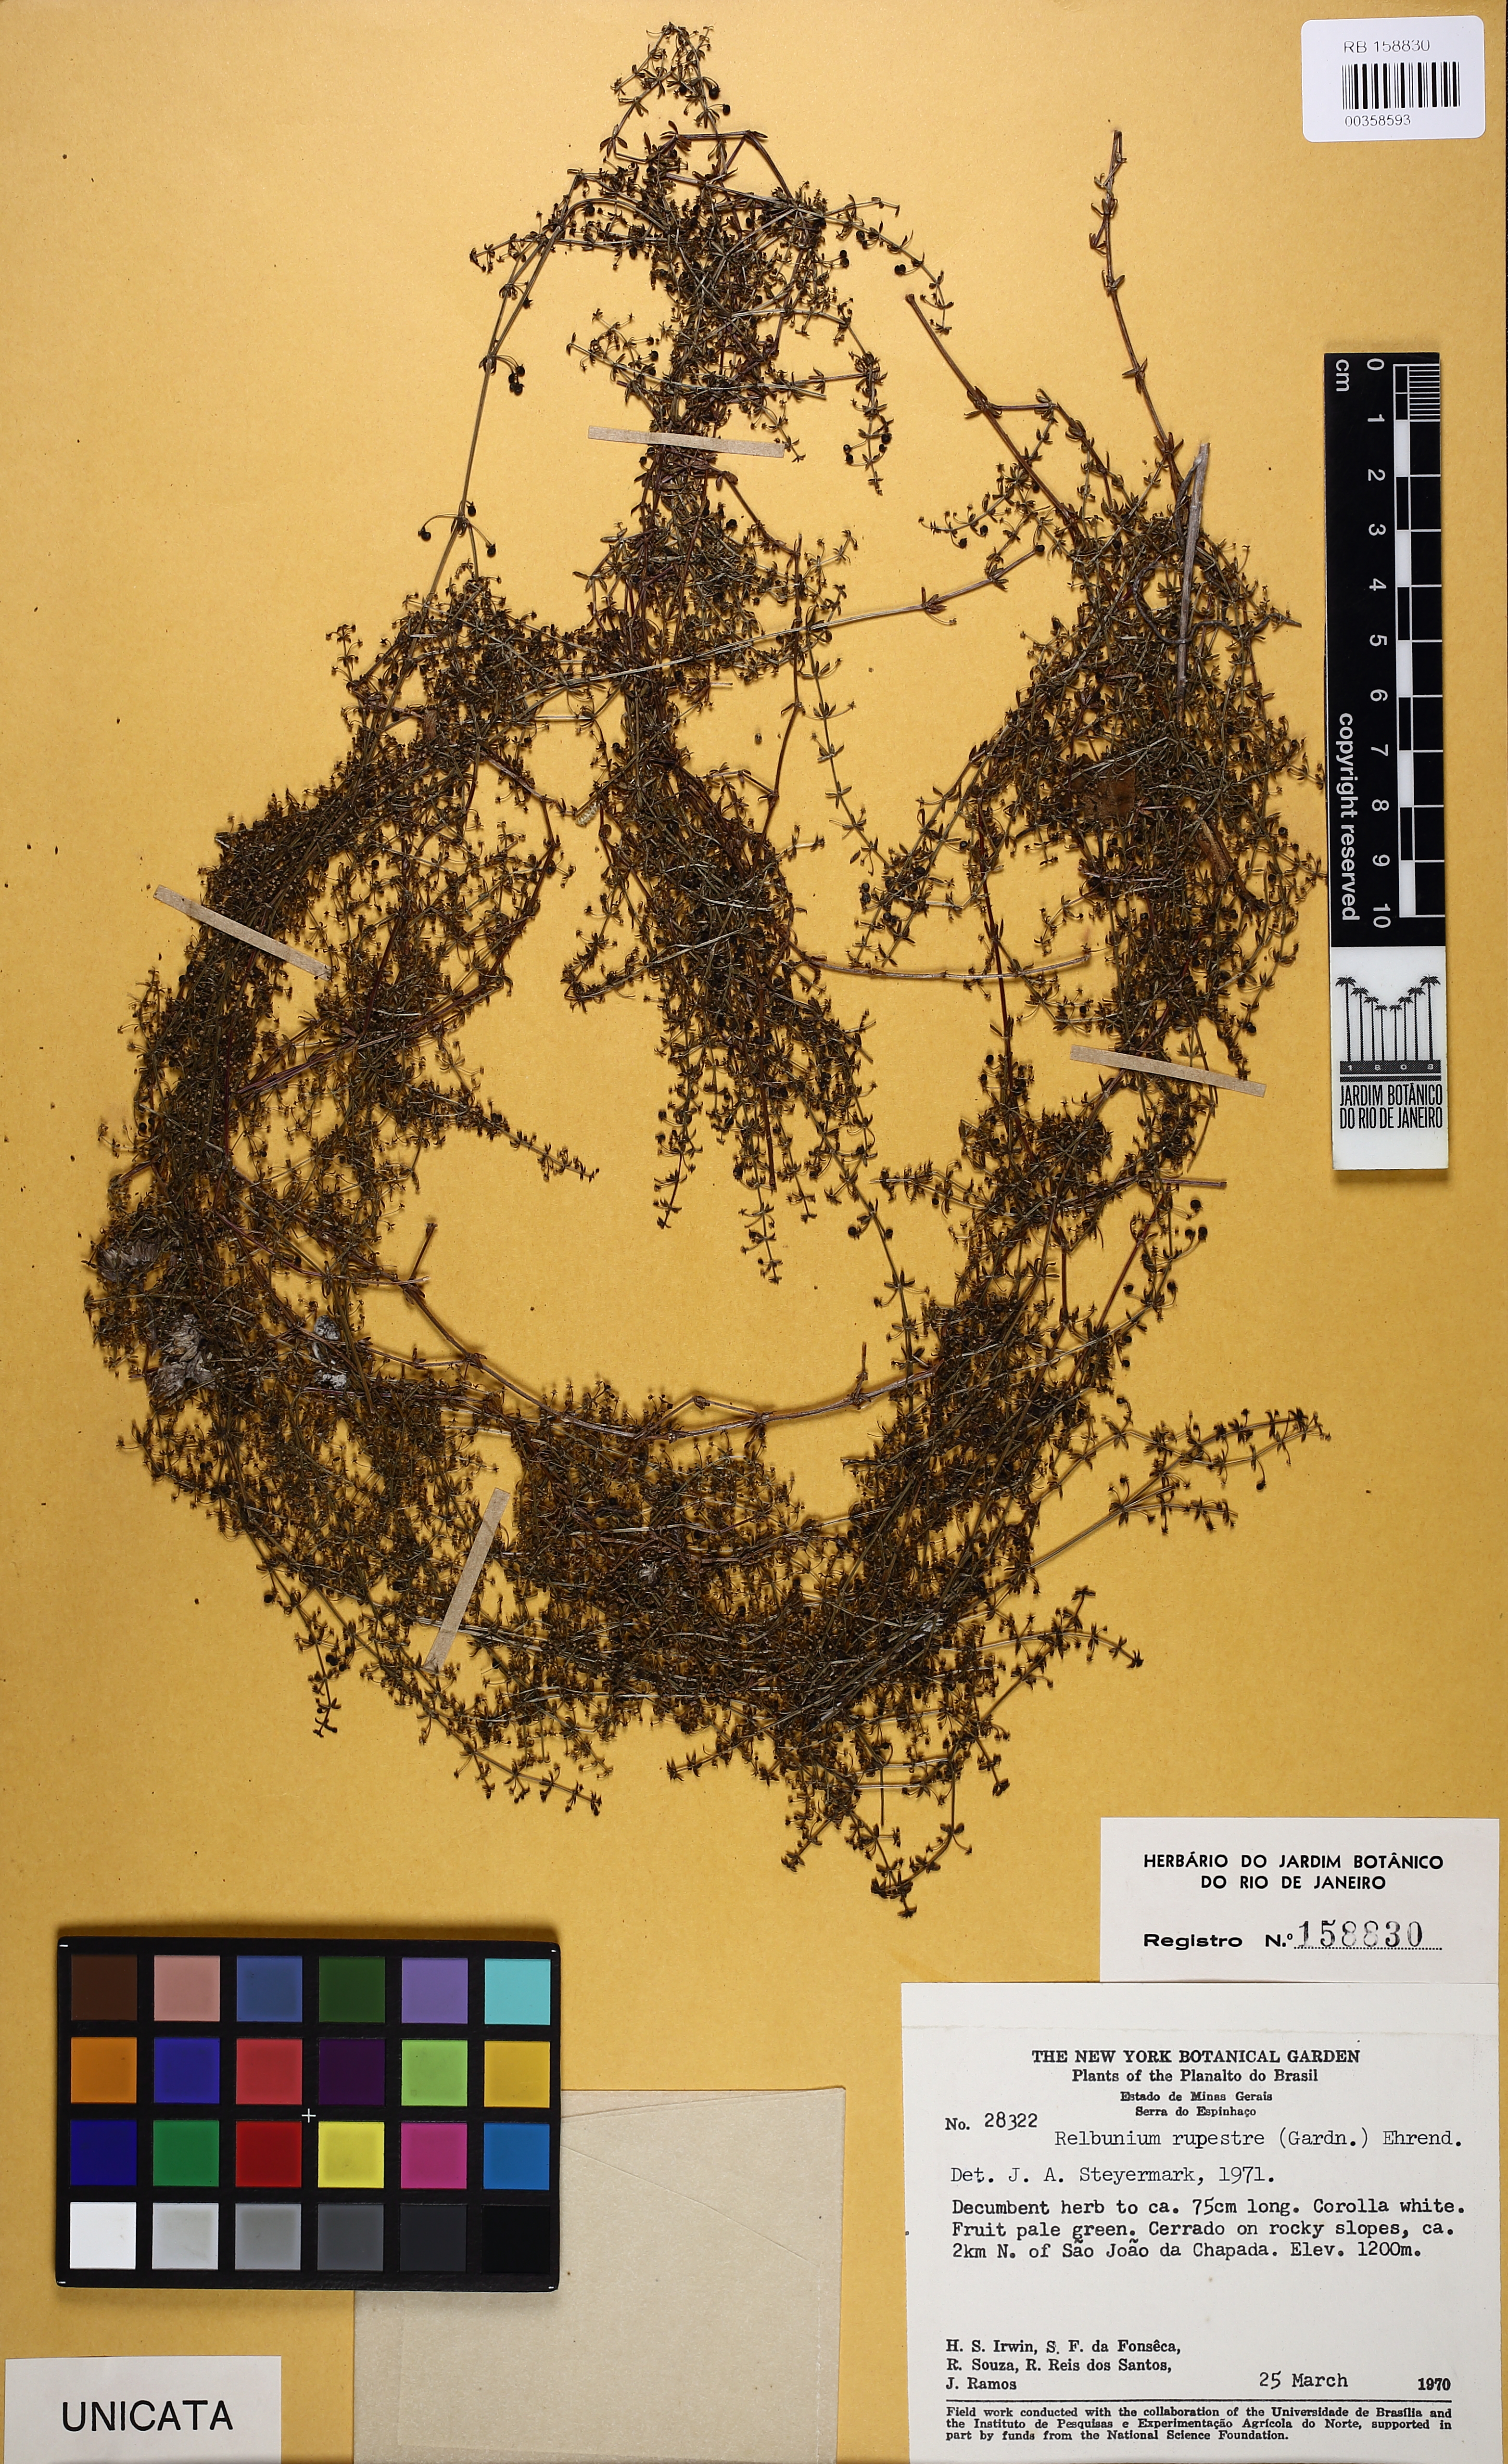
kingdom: Plantae
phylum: Tracheophyta
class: Magnoliopsida
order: Gentianales
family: Rubiaceae
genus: Galium
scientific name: Galium hypocarpium
